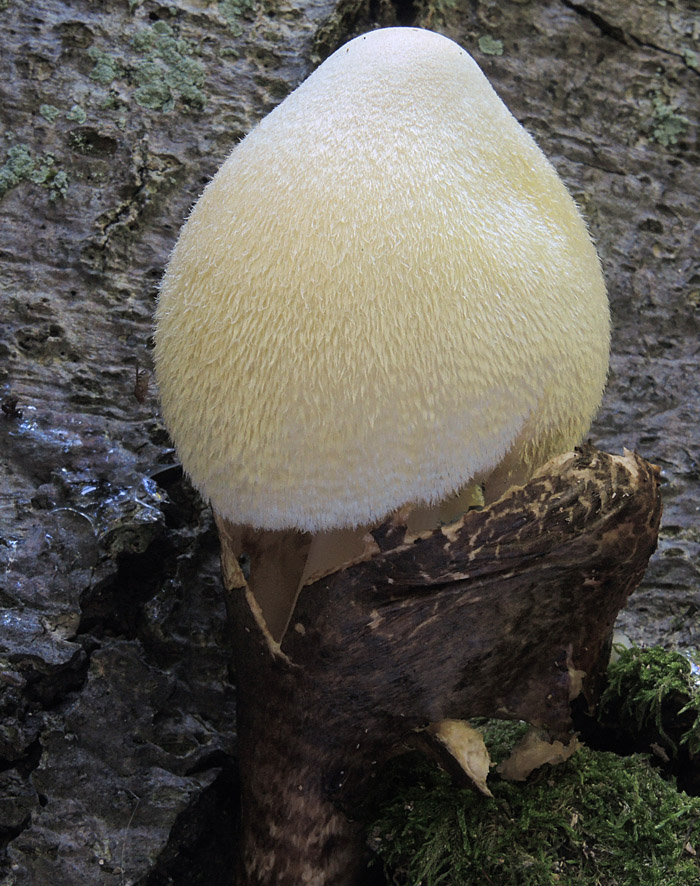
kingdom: Fungi
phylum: Basidiomycota
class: Agaricomycetes
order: Agaricales
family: Pluteaceae
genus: Volvariella
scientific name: Volvariella bombycina
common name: silkehåret posesvamp
